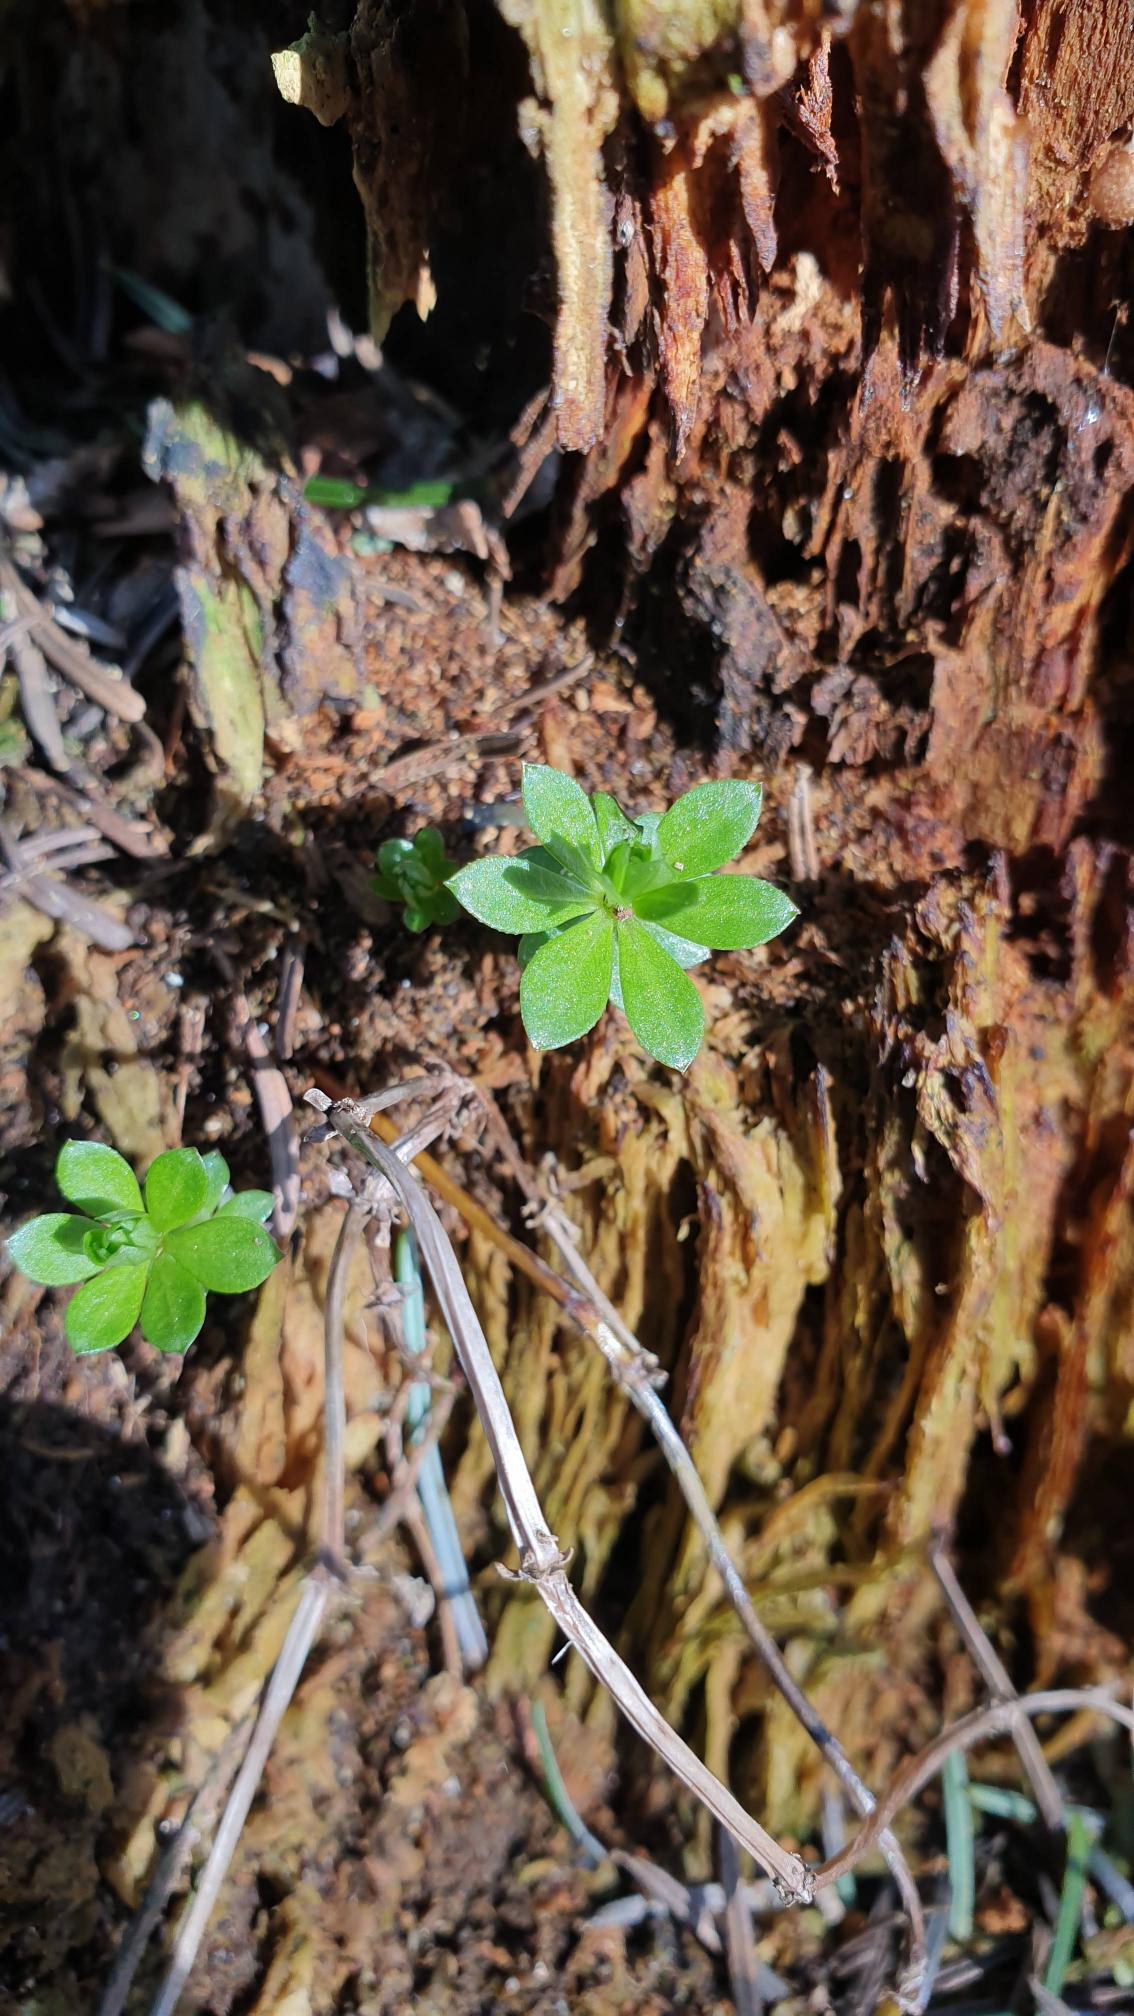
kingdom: Plantae
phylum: Tracheophyta
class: Magnoliopsida
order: Gentianales
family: Rubiaceae
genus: Galium
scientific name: Galium odoratum
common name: Skovmærke
